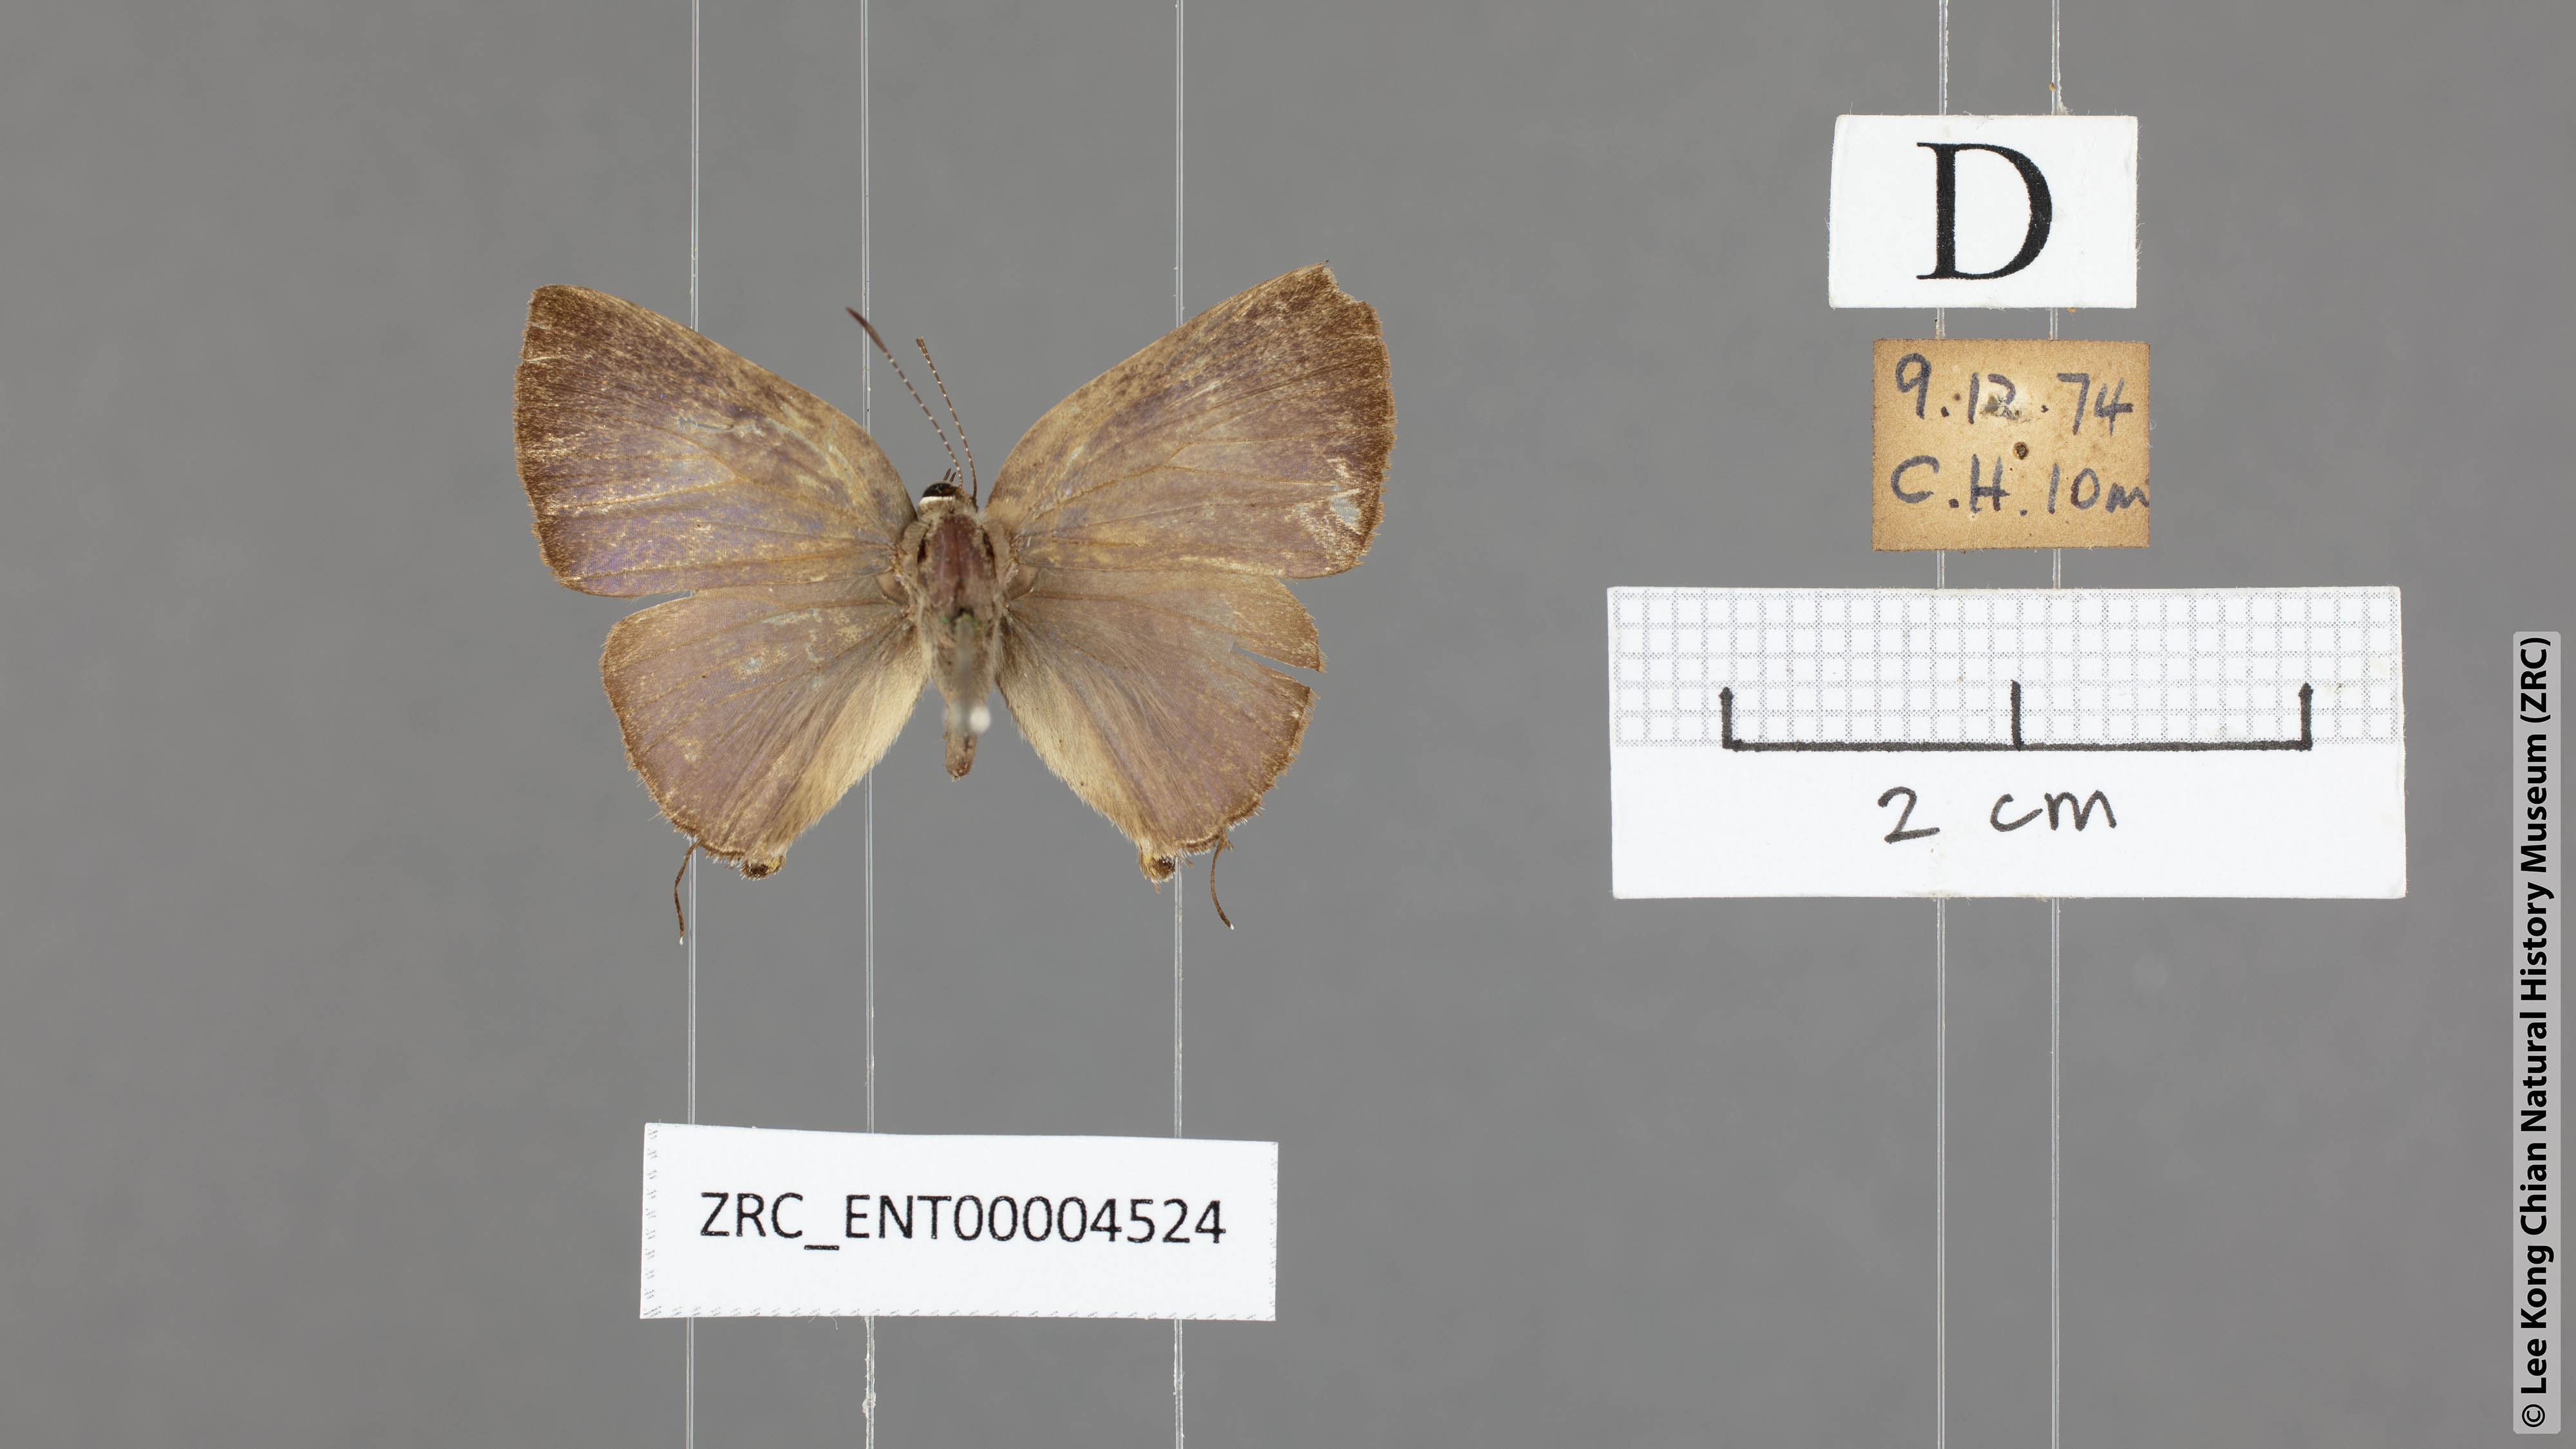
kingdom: Animalia
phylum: Arthropoda
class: Insecta
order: Lepidoptera
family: Lycaenidae
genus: Rapala
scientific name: Rapala varuna
